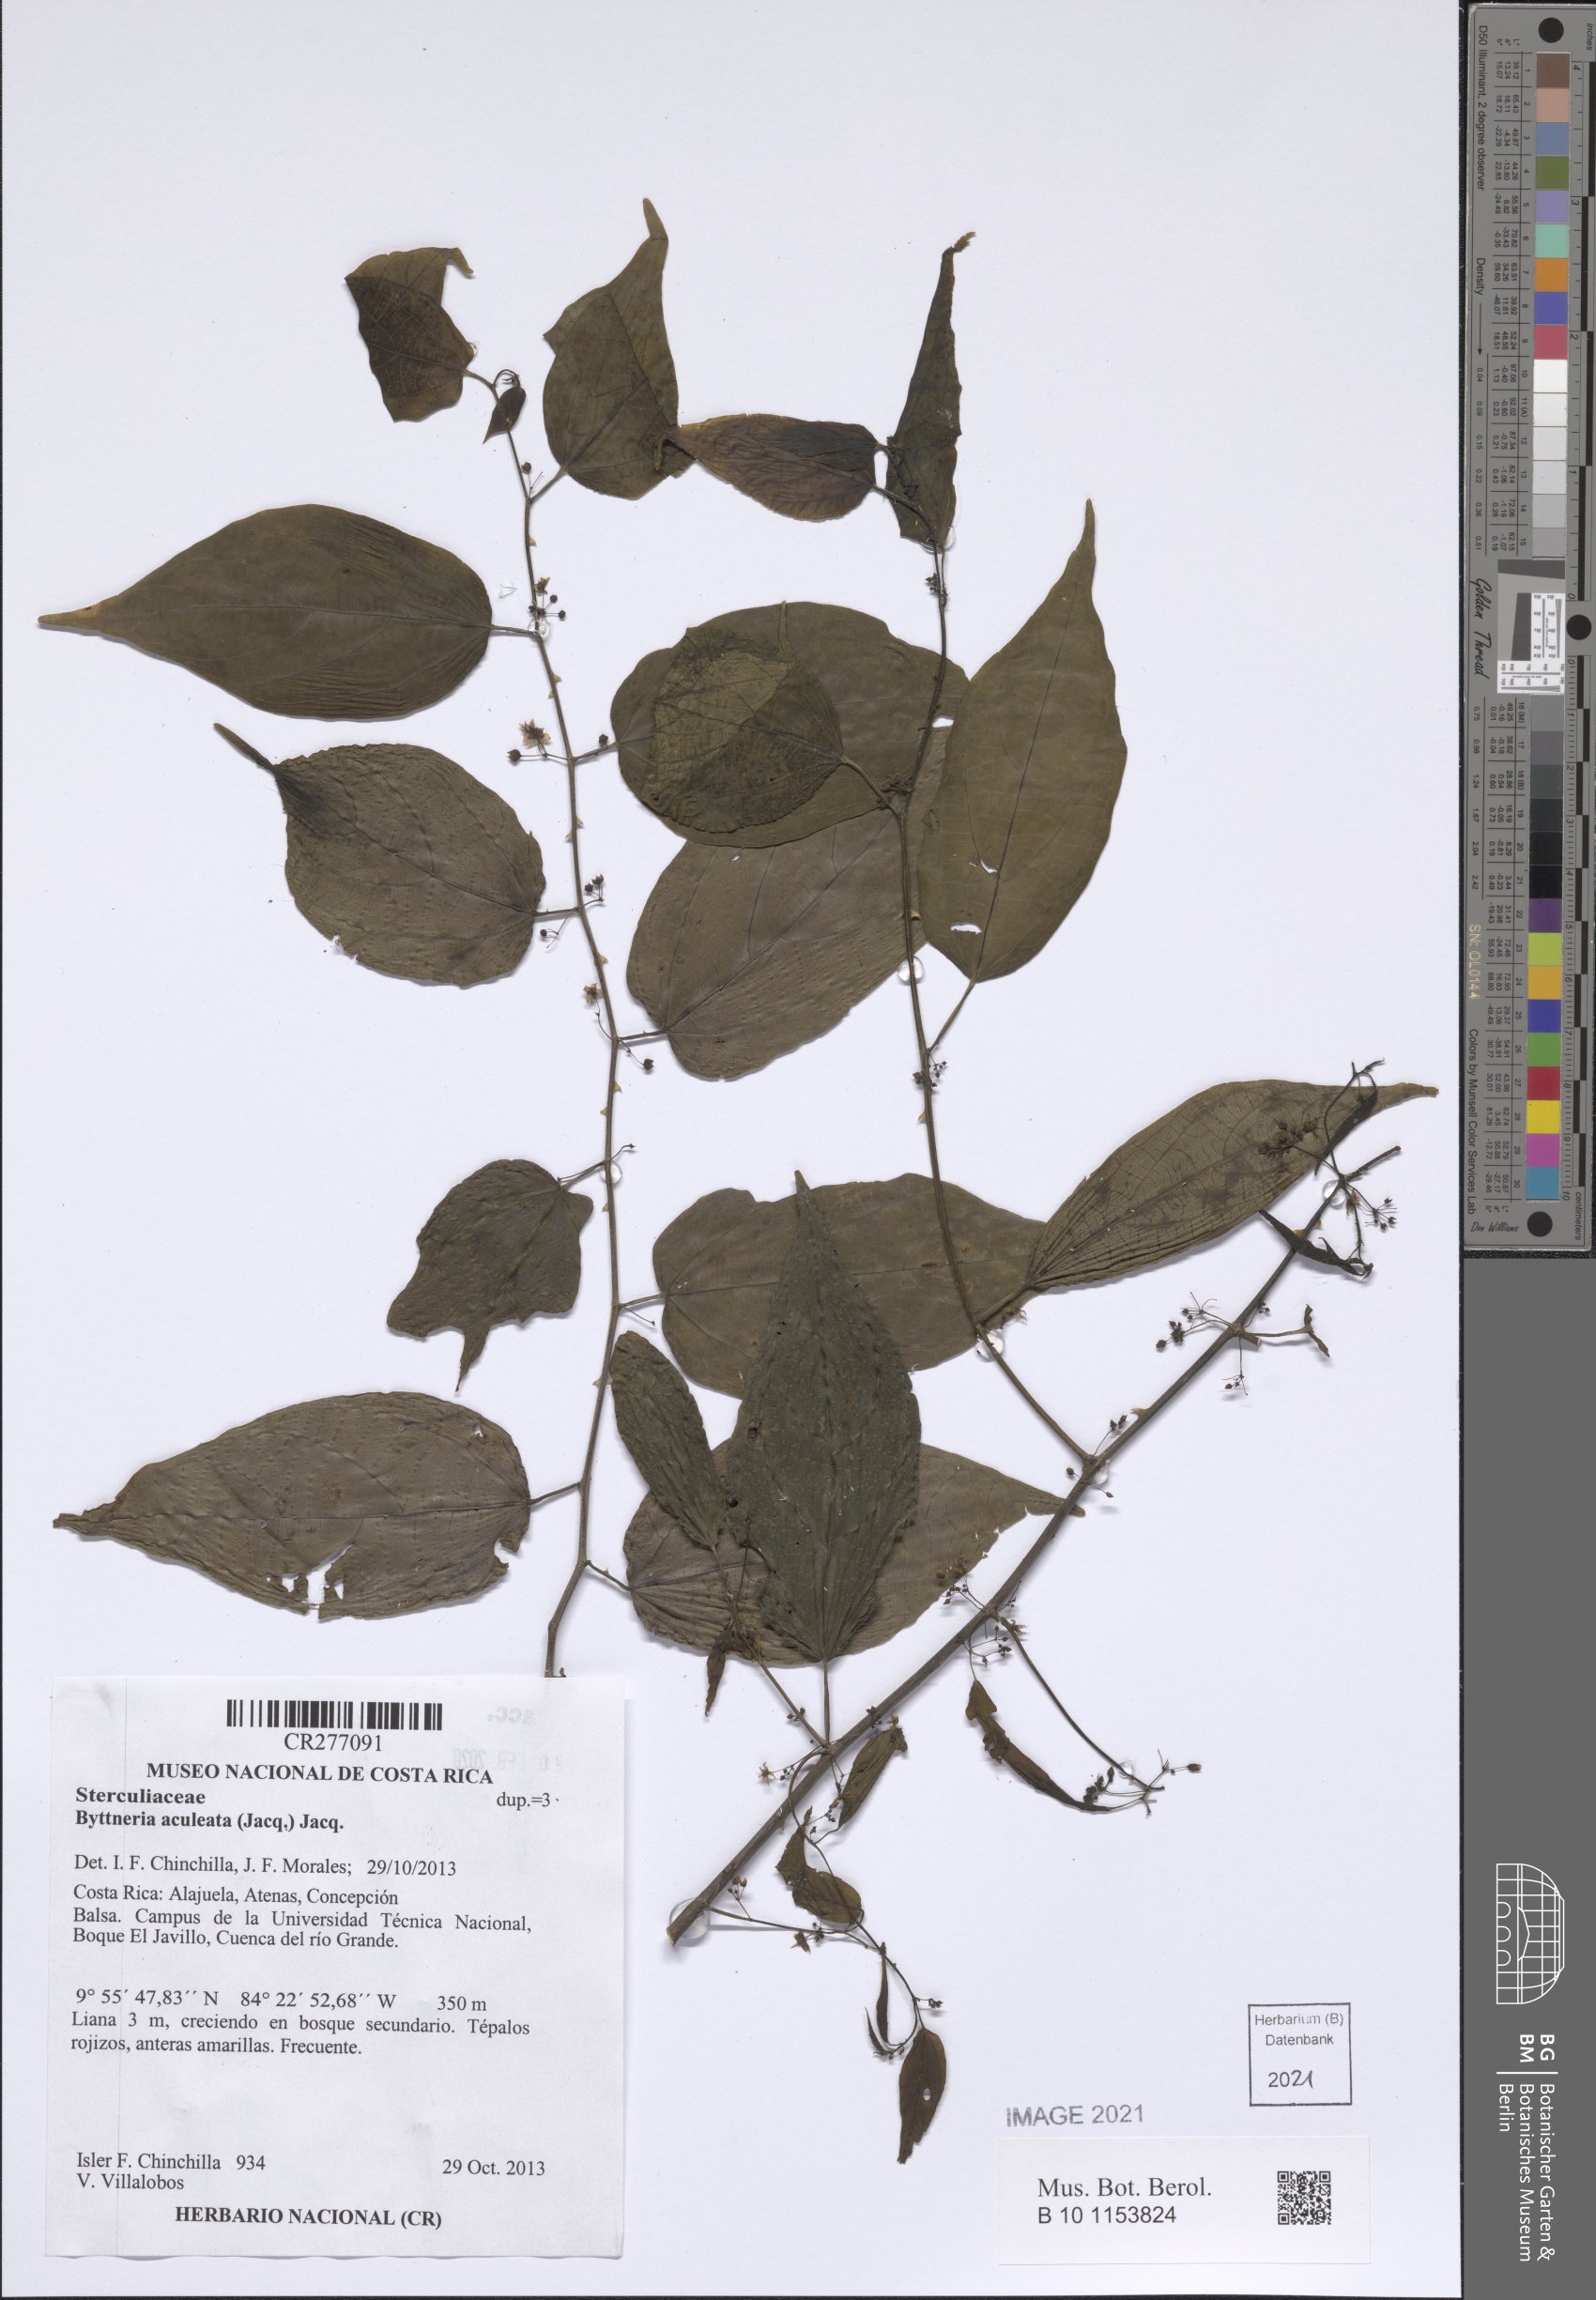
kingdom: Plantae
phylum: Tracheophyta
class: Magnoliopsida
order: Malvales
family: Malvaceae
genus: Byttneria
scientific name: Byttneria aculeata
